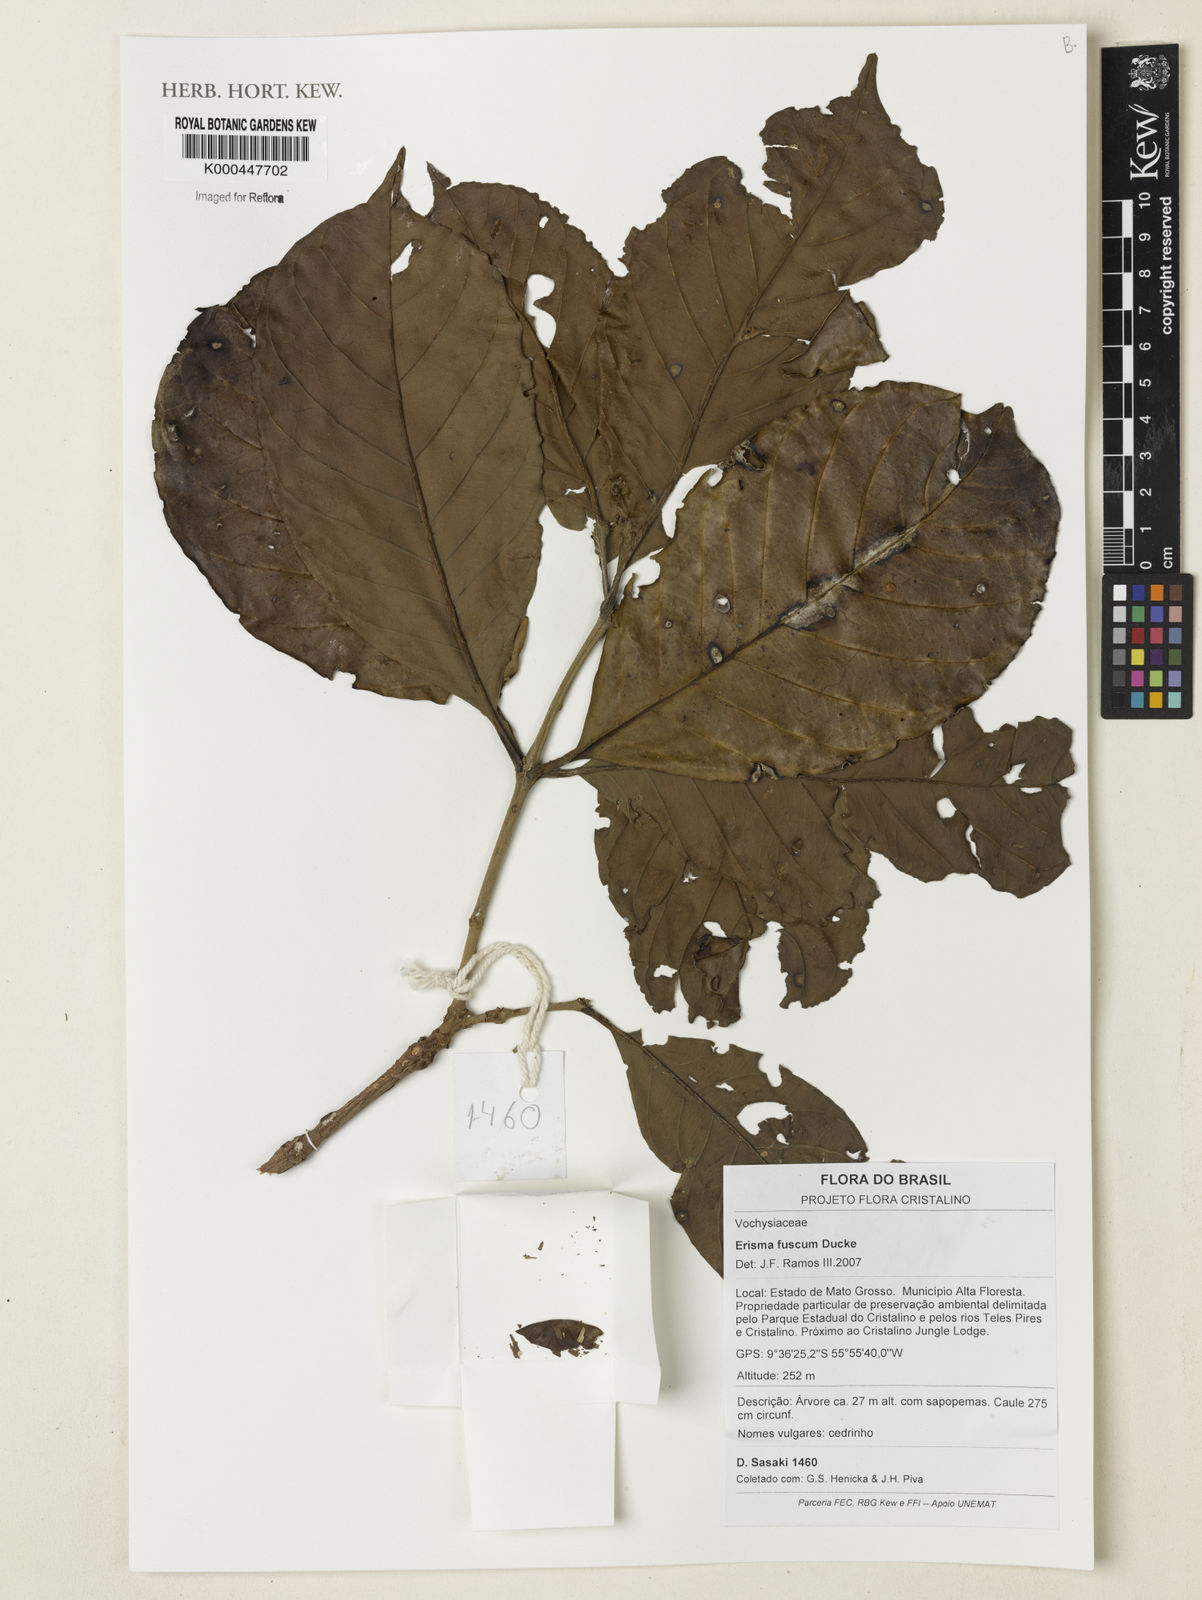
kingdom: Plantae
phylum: Tracheophyta
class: Magnoliopsida
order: Myrtales
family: Vochysiaceae
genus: Erisma
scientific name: Erisma fuscum
